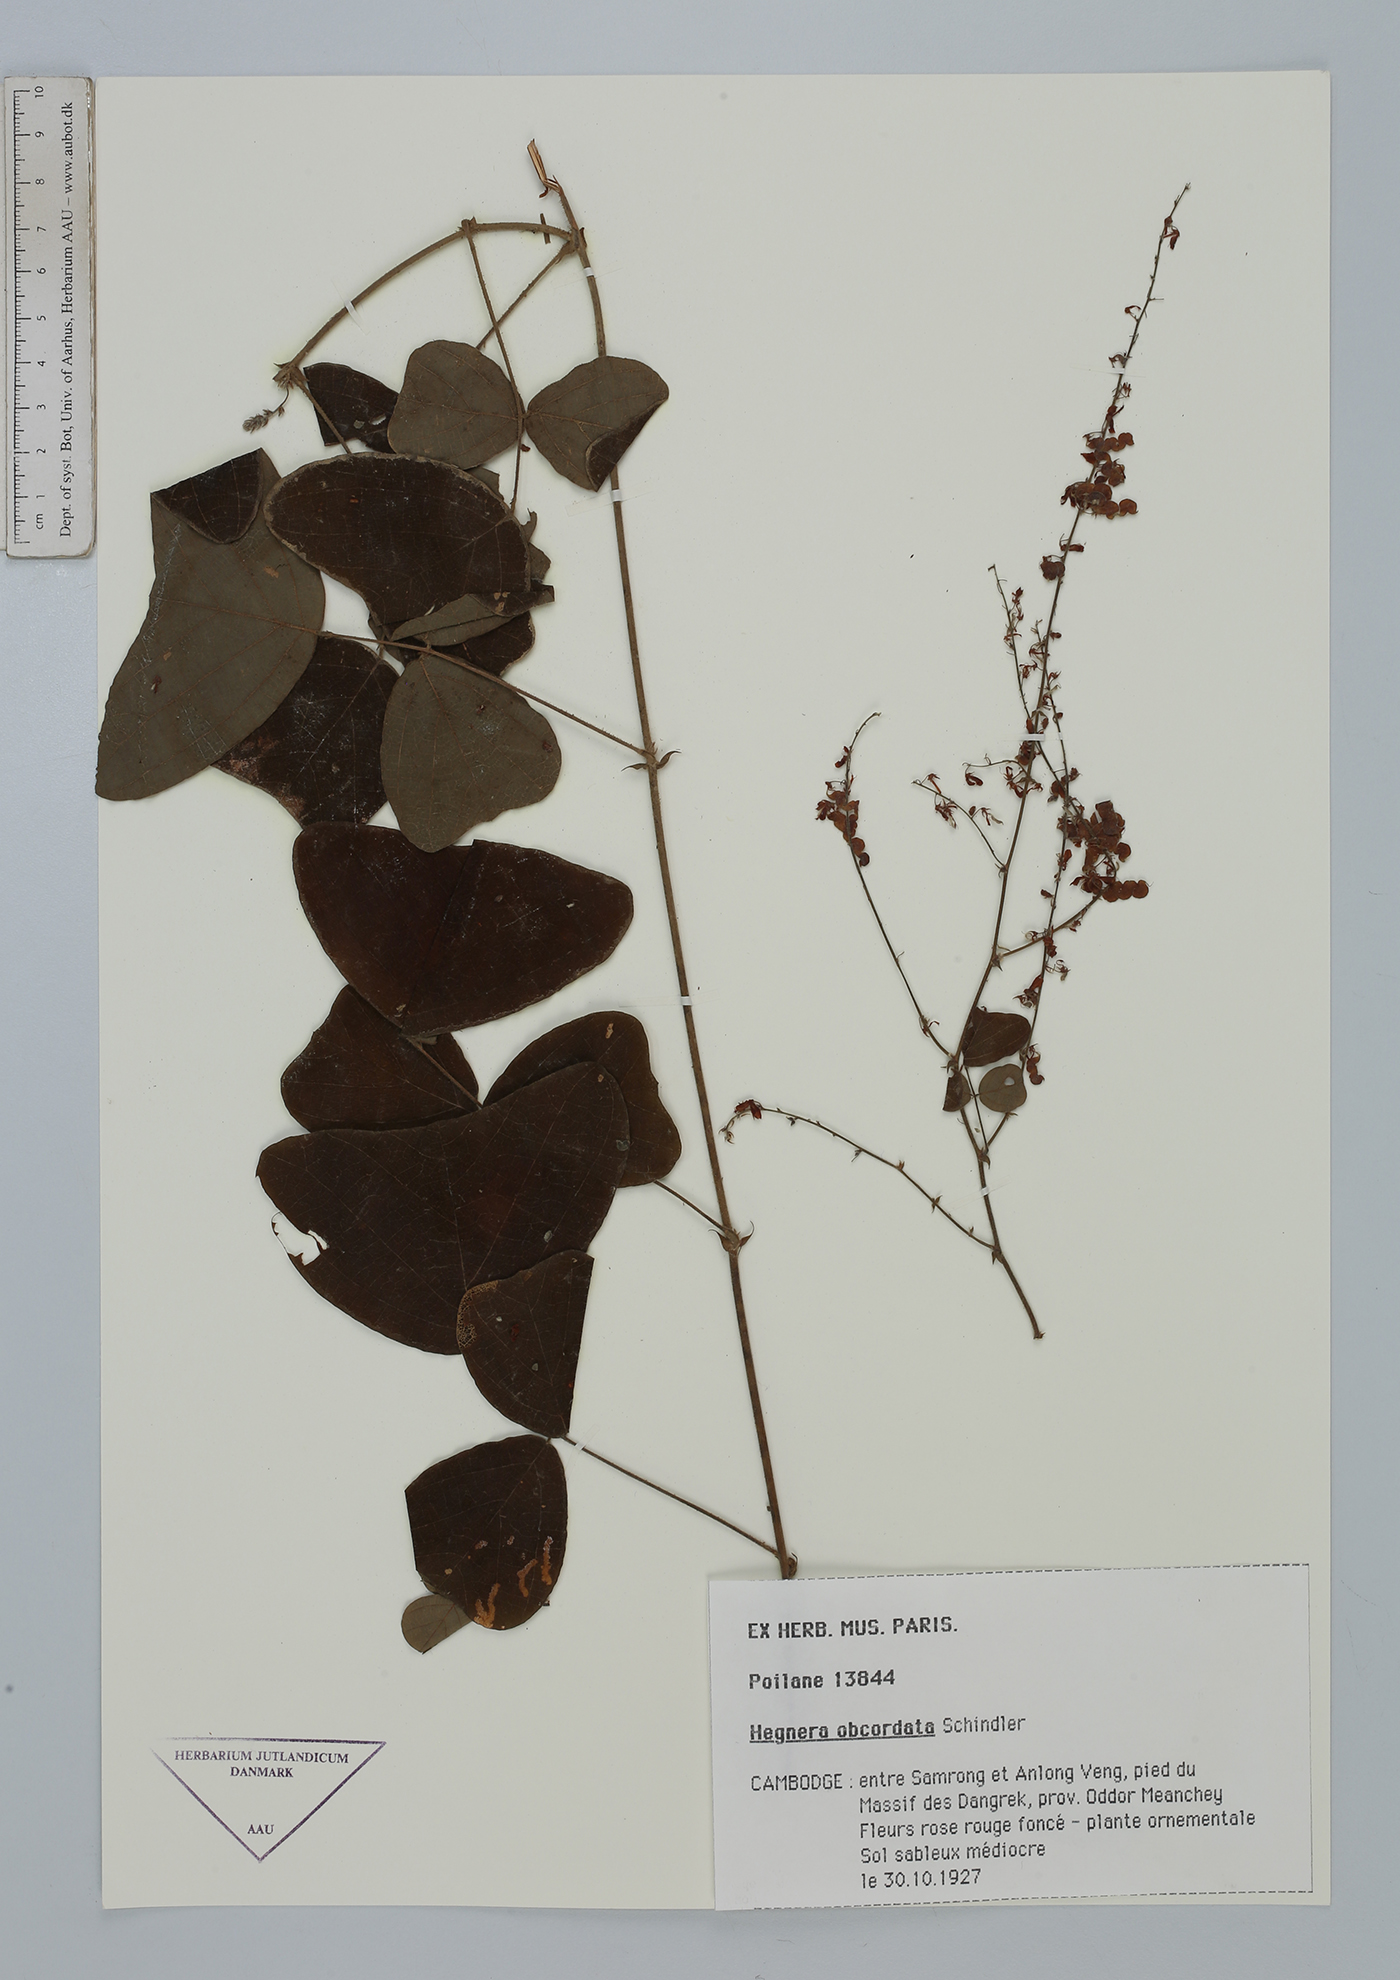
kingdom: Plantae
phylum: Tracheophyta
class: Magnoliopsida
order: Fabales
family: Fabaceae
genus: Hegnera
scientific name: Hegnera obcordata
